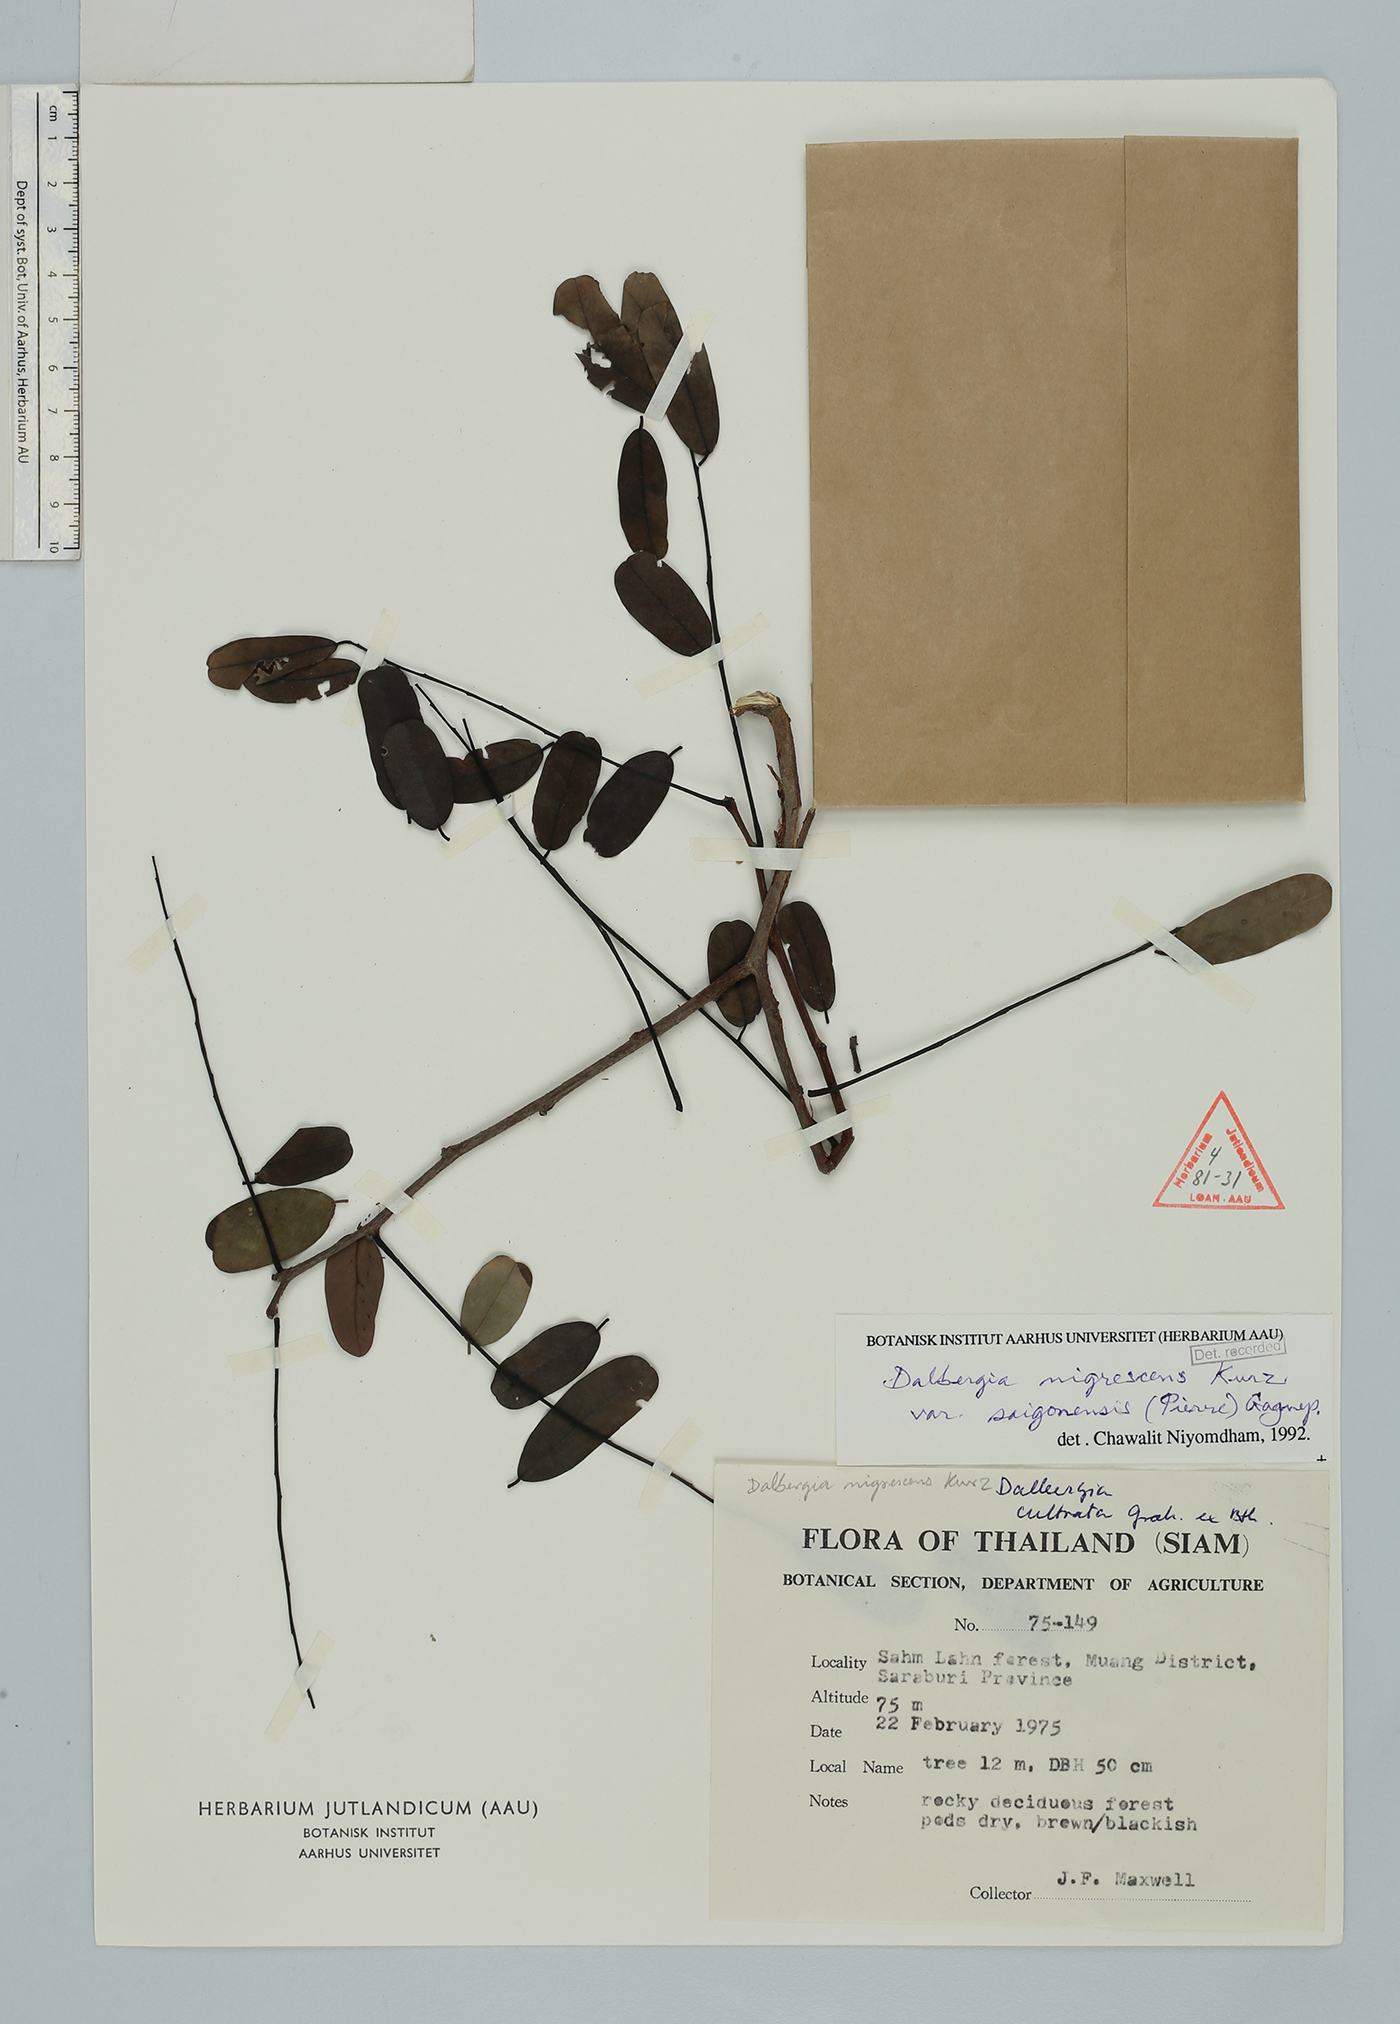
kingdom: Plantae
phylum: Tracheophyta
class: Magnoliopsida
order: Fabales
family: Fabaceae
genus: Dalbergia
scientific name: Dalbergia nigrescens
